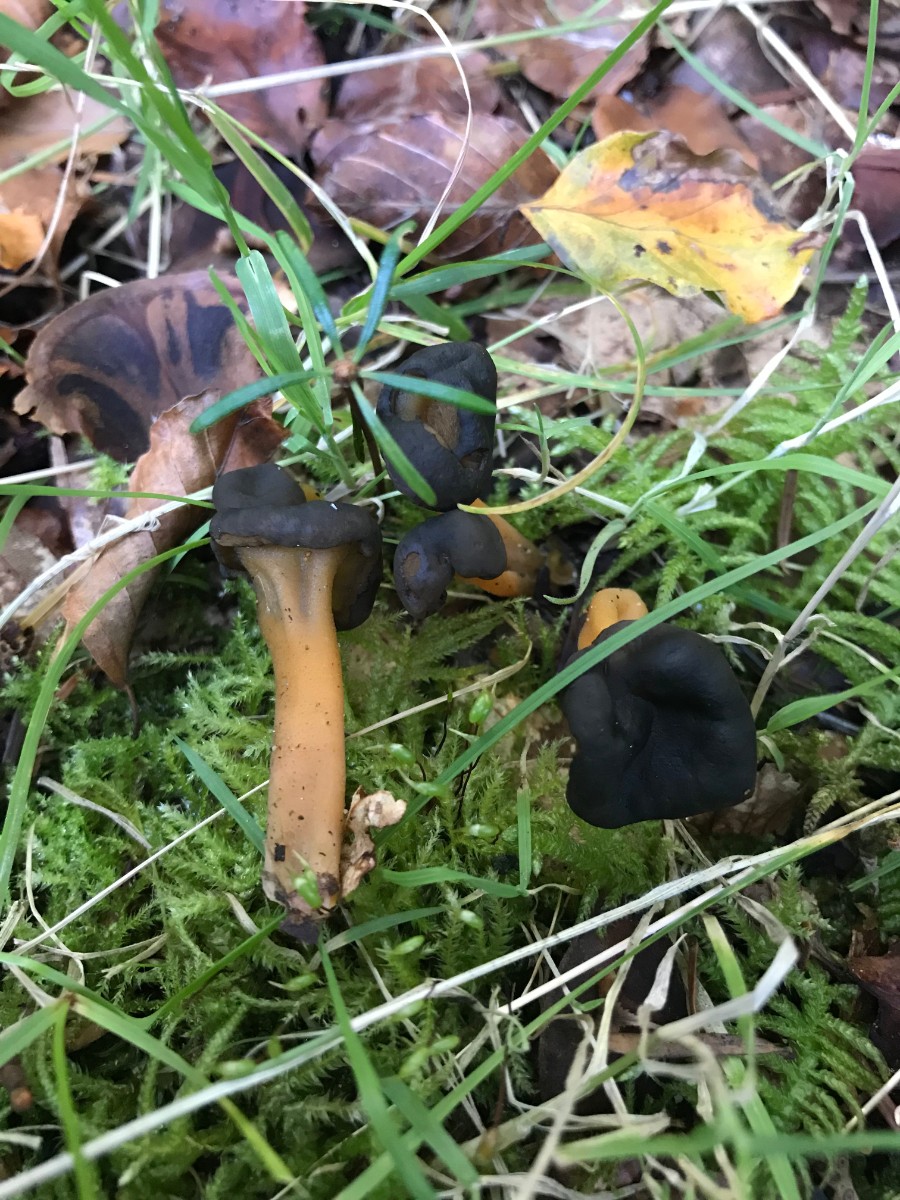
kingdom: Fungi
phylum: Ascomycota
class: Leotiomycetes
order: Leotiales
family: Leotiaceae
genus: Leotia
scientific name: Leotia lubrica
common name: ravsvamp
